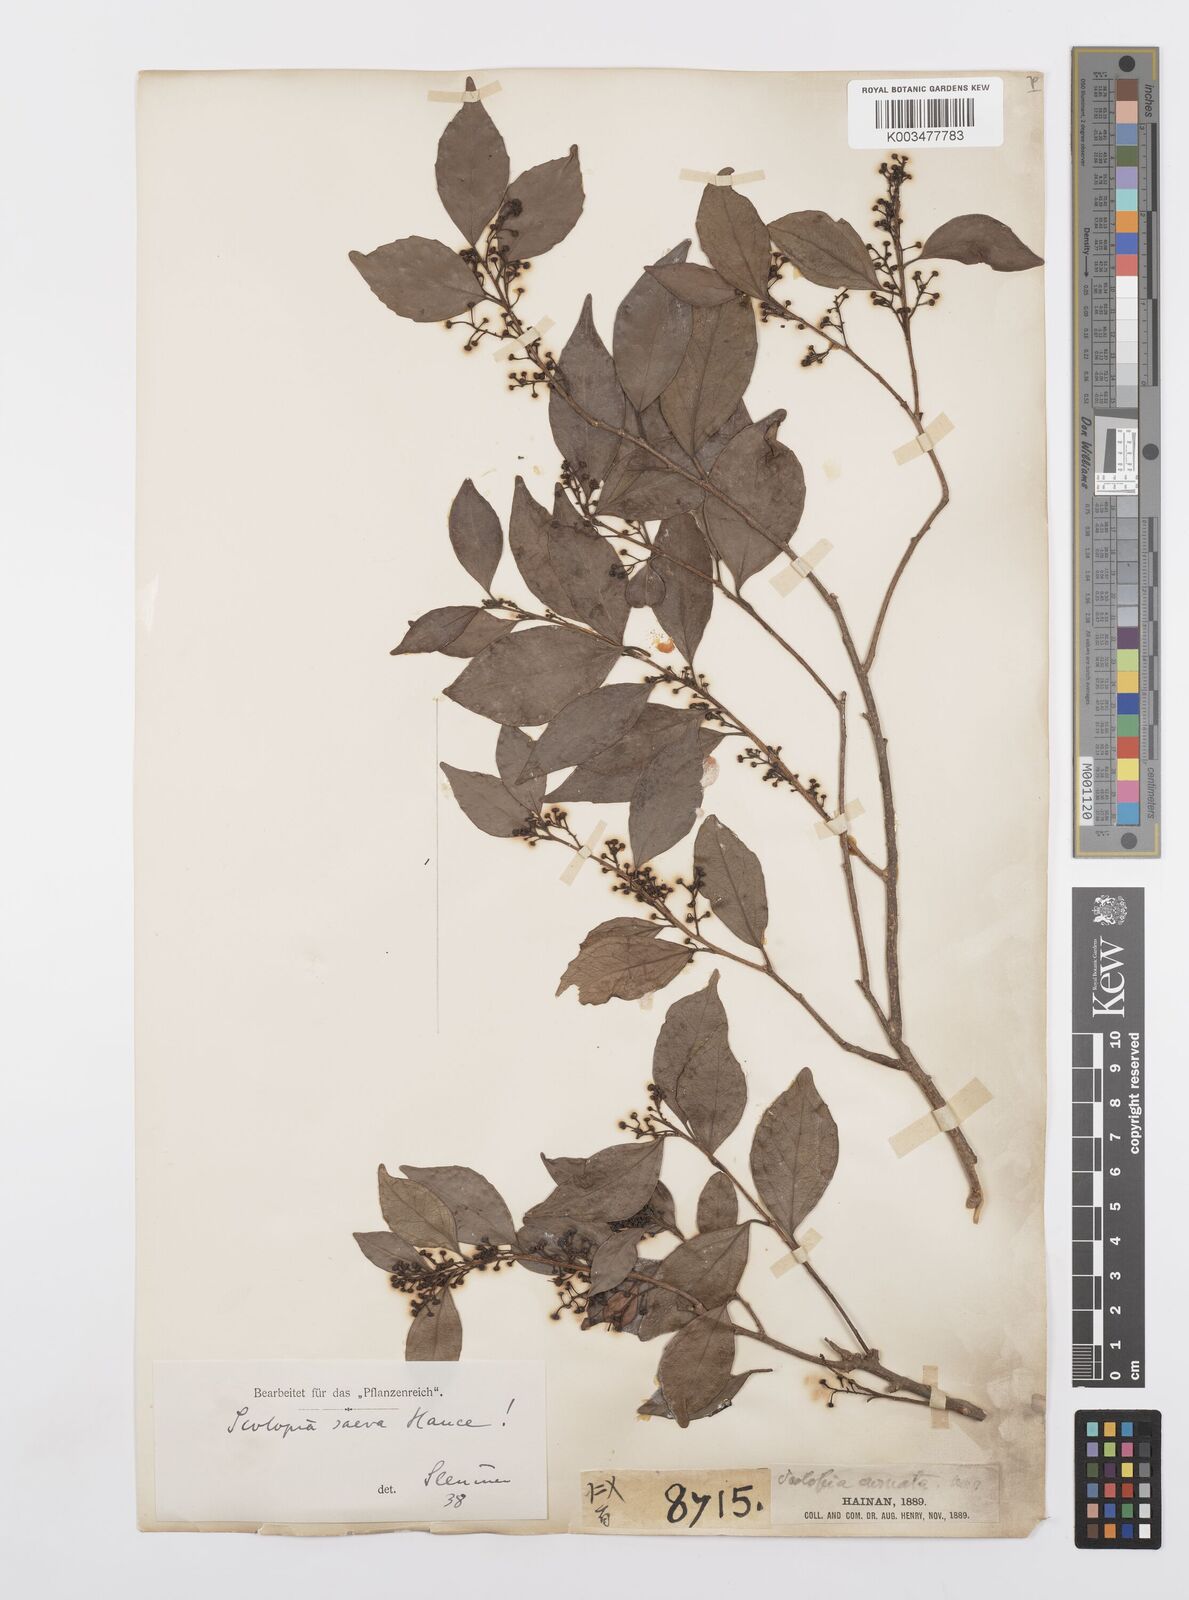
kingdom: Plantae
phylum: Tracheophyta
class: Magnoliopsida
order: Malpighiales
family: Salicaceae
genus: Scolopia
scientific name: Scolopia saeva
